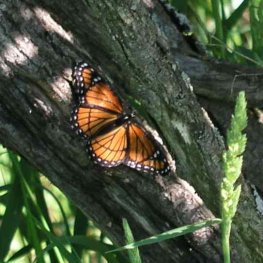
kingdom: Animalia
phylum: Arthropoda
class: Insecta
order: Lepidoptera
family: Nymphalidae
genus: Limenitis
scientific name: Limenitis archippus
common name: Viceroy
